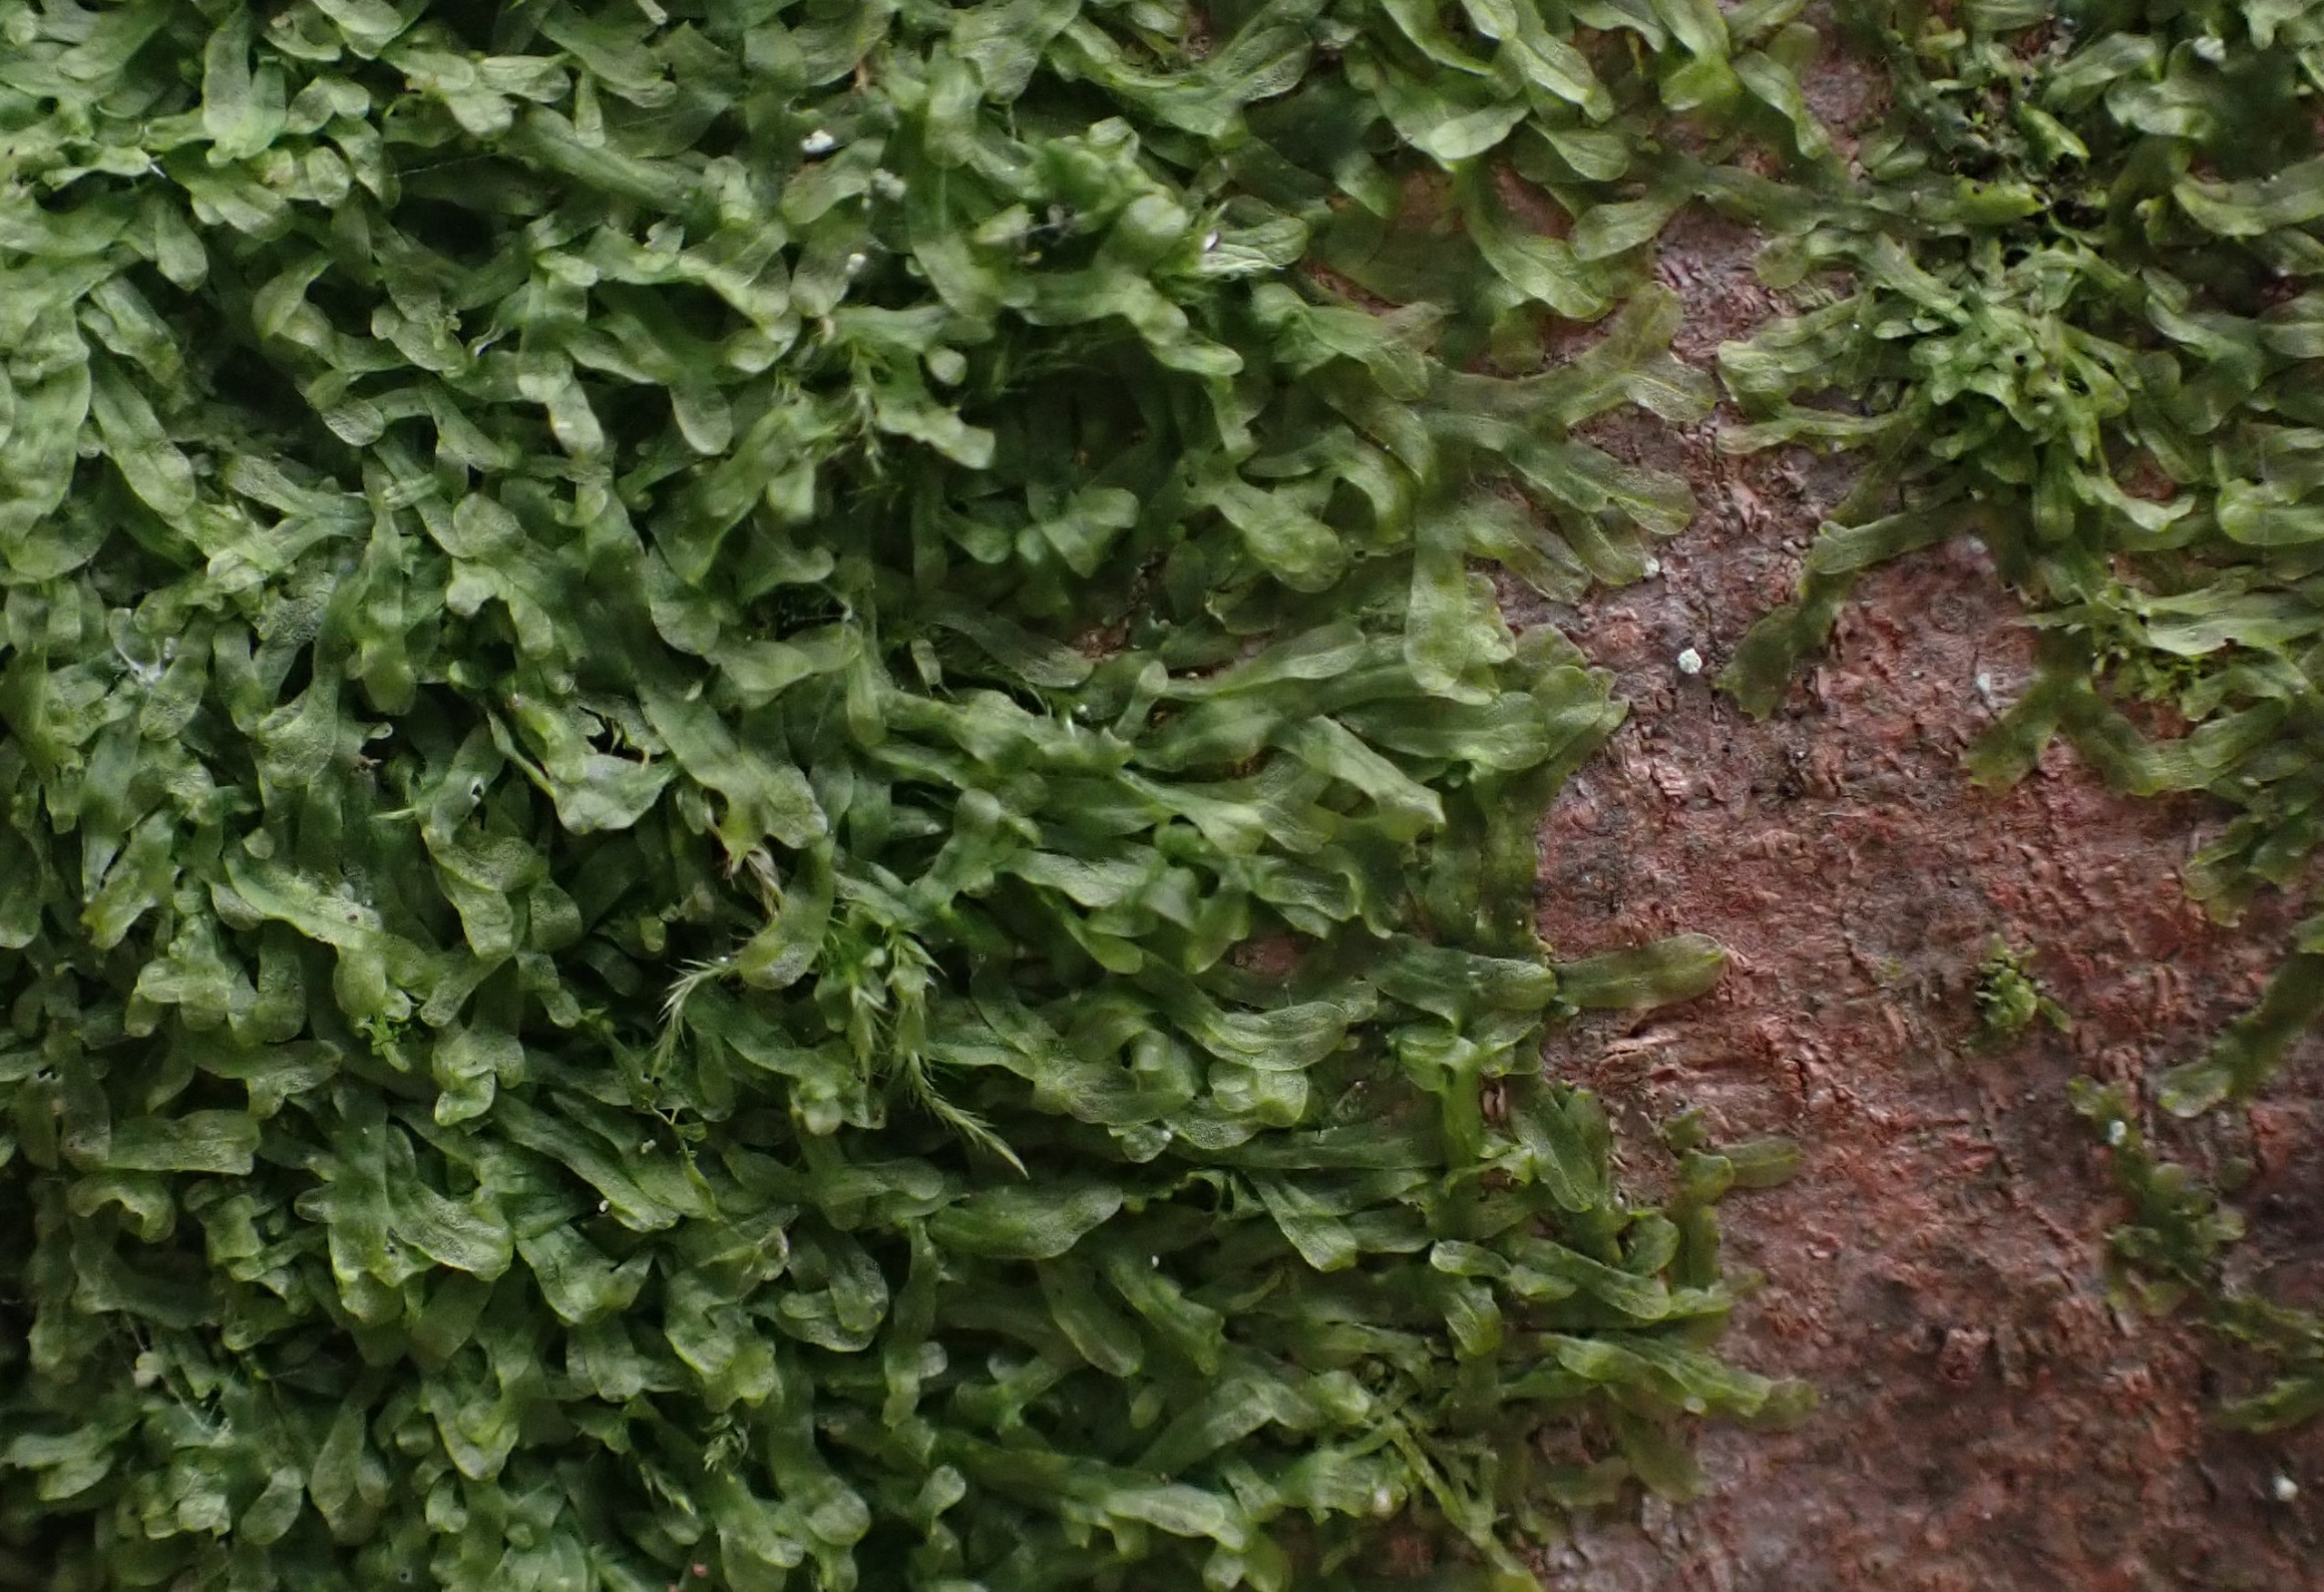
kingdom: Plantae
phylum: Marchantiophyta
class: Jungermanniopsida
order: Metzgeriales
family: Metzgeriaceae
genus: Metzgeria
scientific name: Metzgeria furcata
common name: Almindelig gaffelløv
